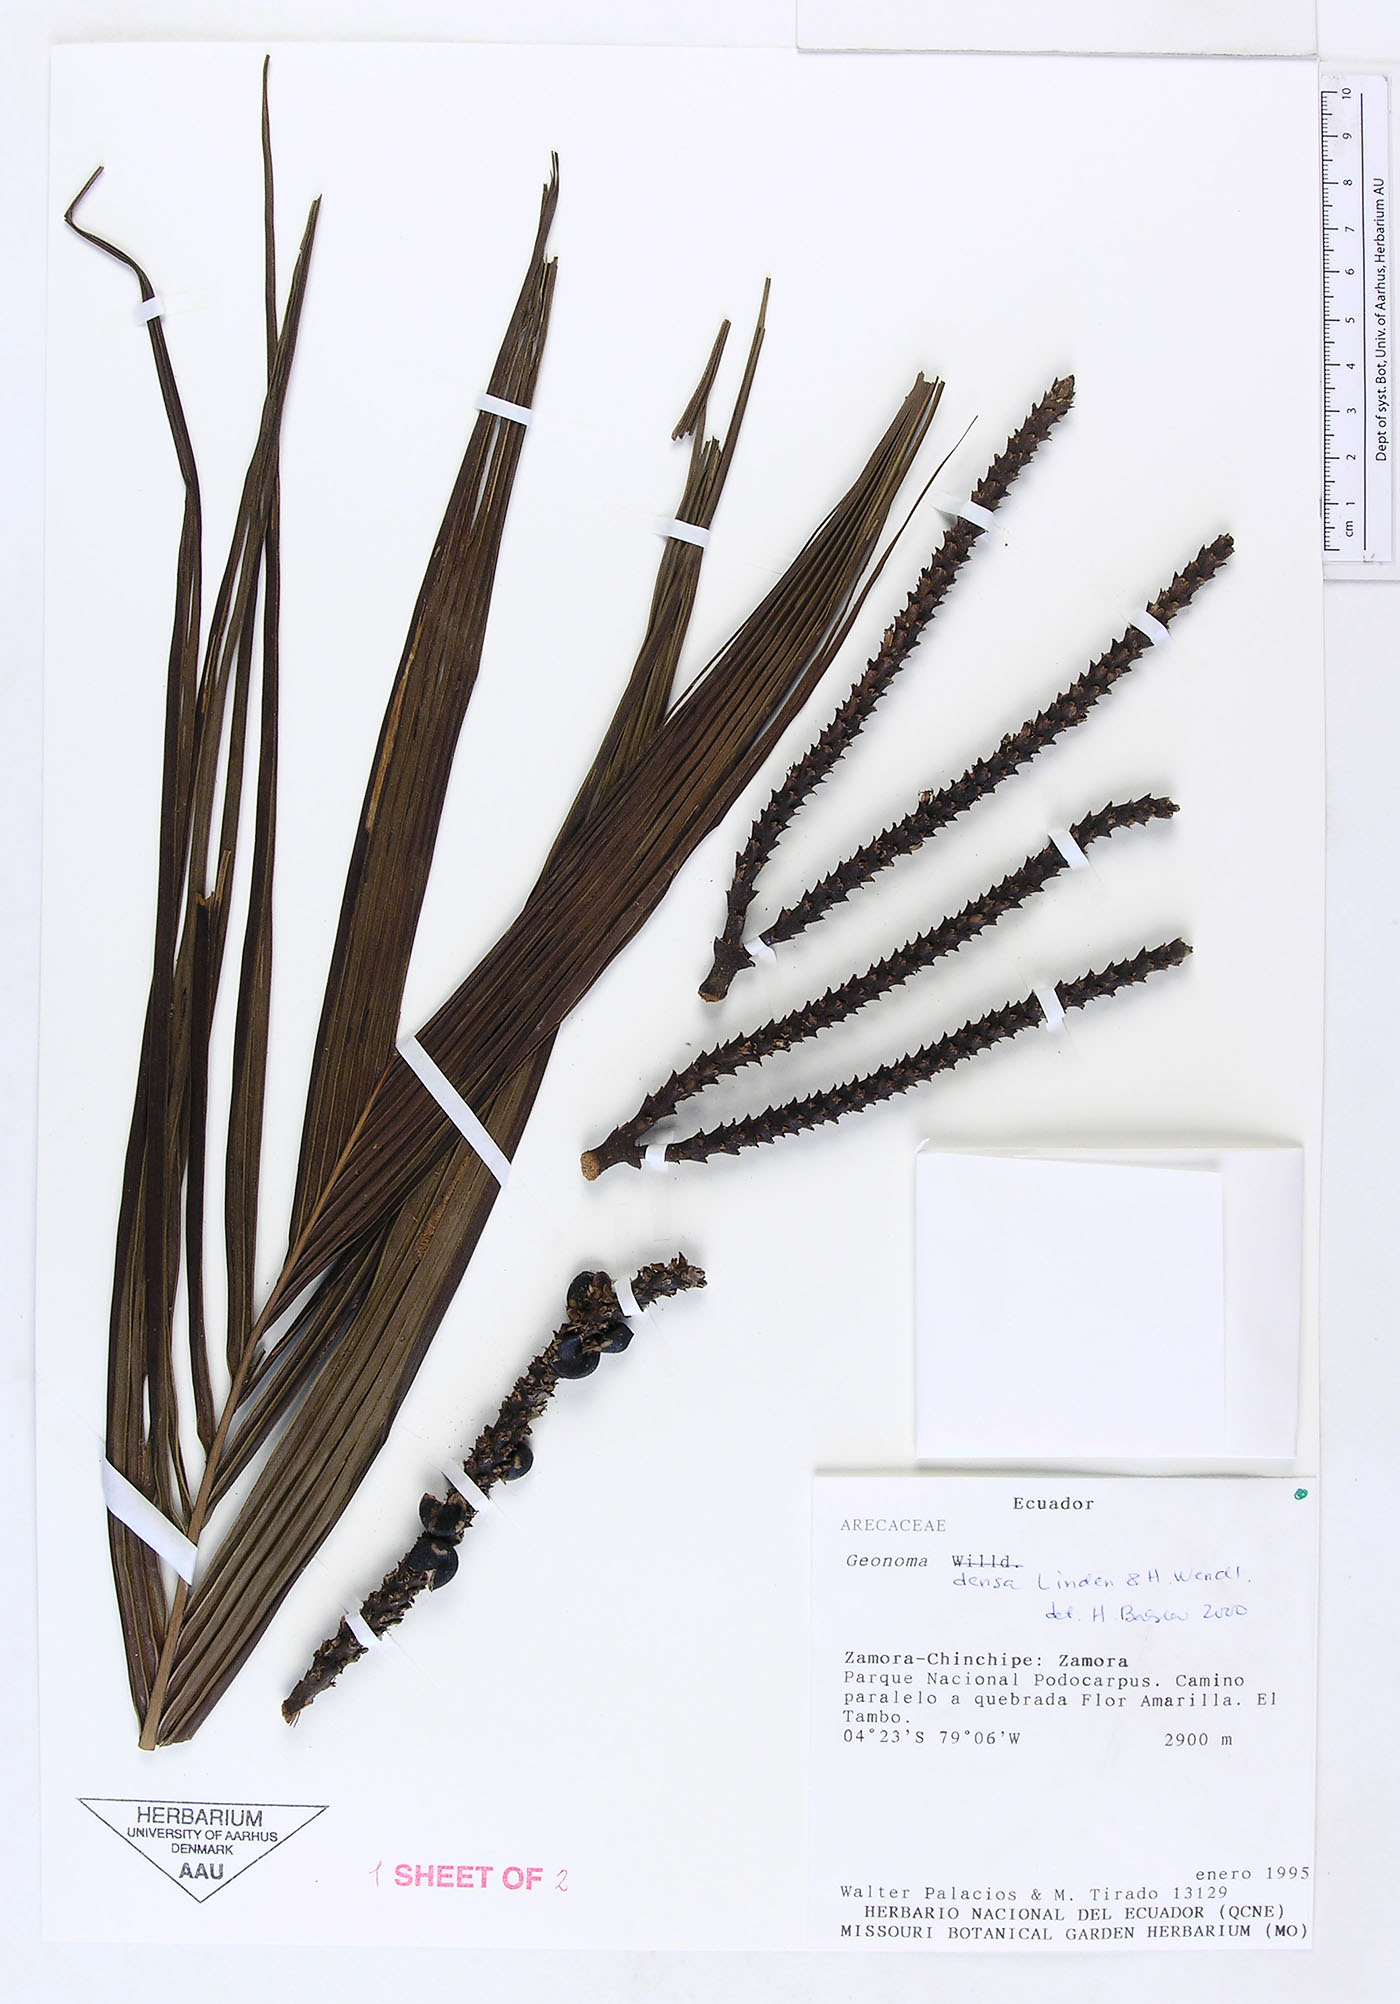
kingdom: Plantae
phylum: Tracheophyta
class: Liliopsida
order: Arecales
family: Arecaceae
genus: Geonoma
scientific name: Geonoma undata
